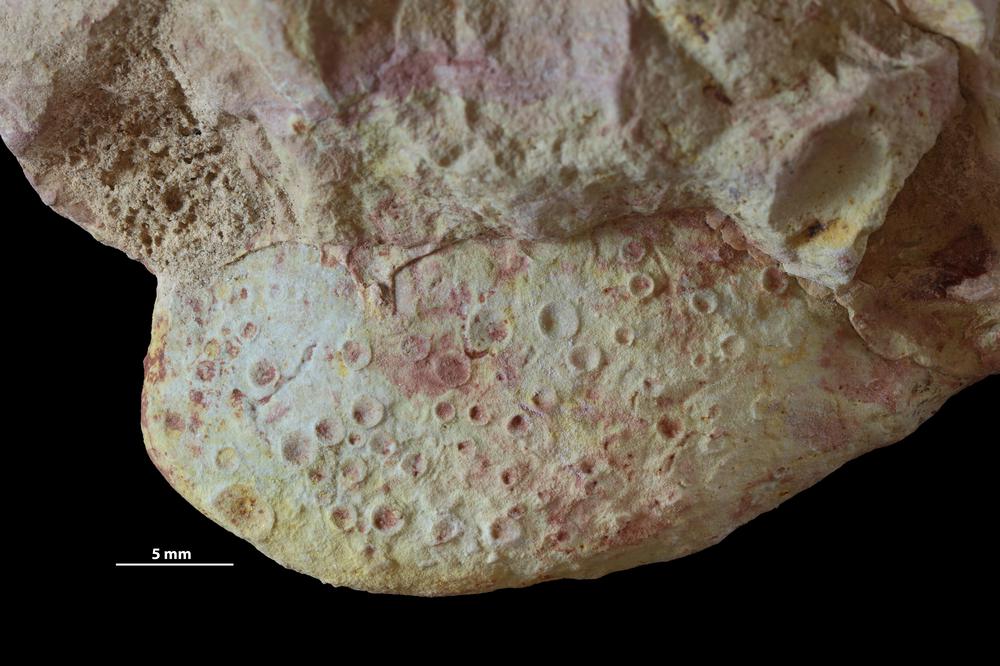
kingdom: Animalia
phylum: Brachiopoda
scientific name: Brachiopoda
